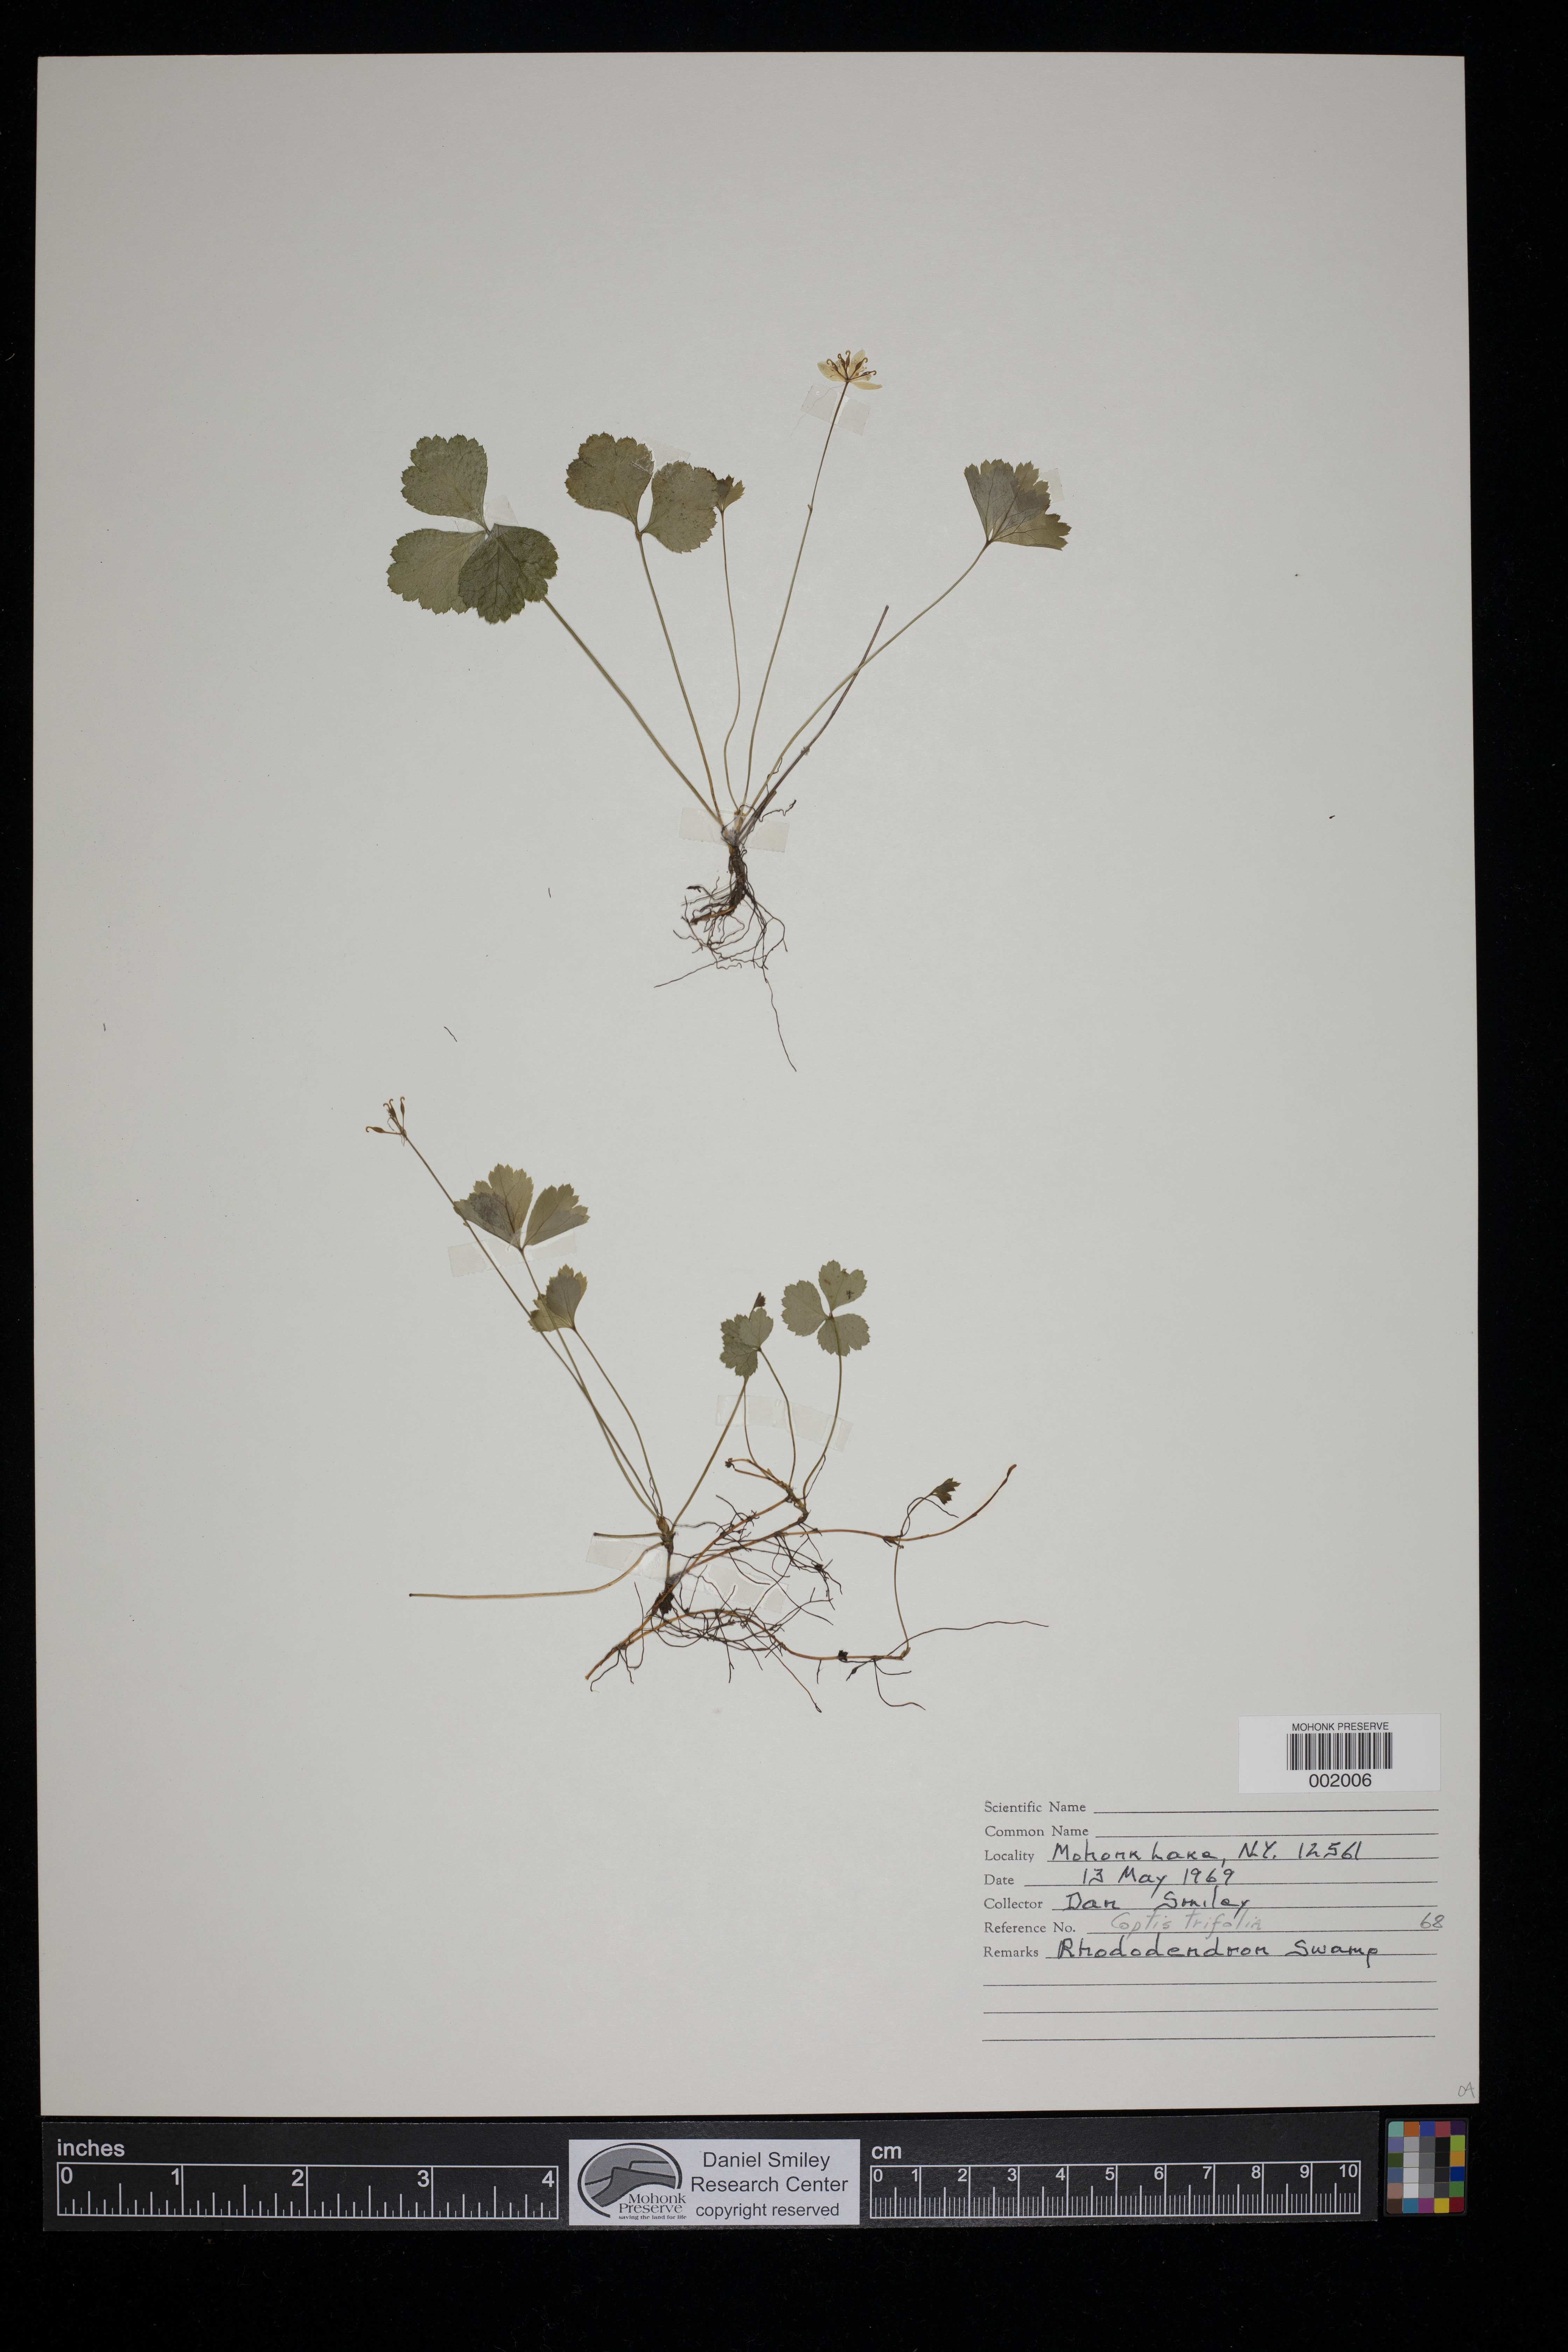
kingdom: Plantae
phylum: Tracheophyta
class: Magnoliopsida
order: Ranunculales
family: Ranunculaceae
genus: Coptis
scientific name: Coptis trifolia
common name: Canker-root
